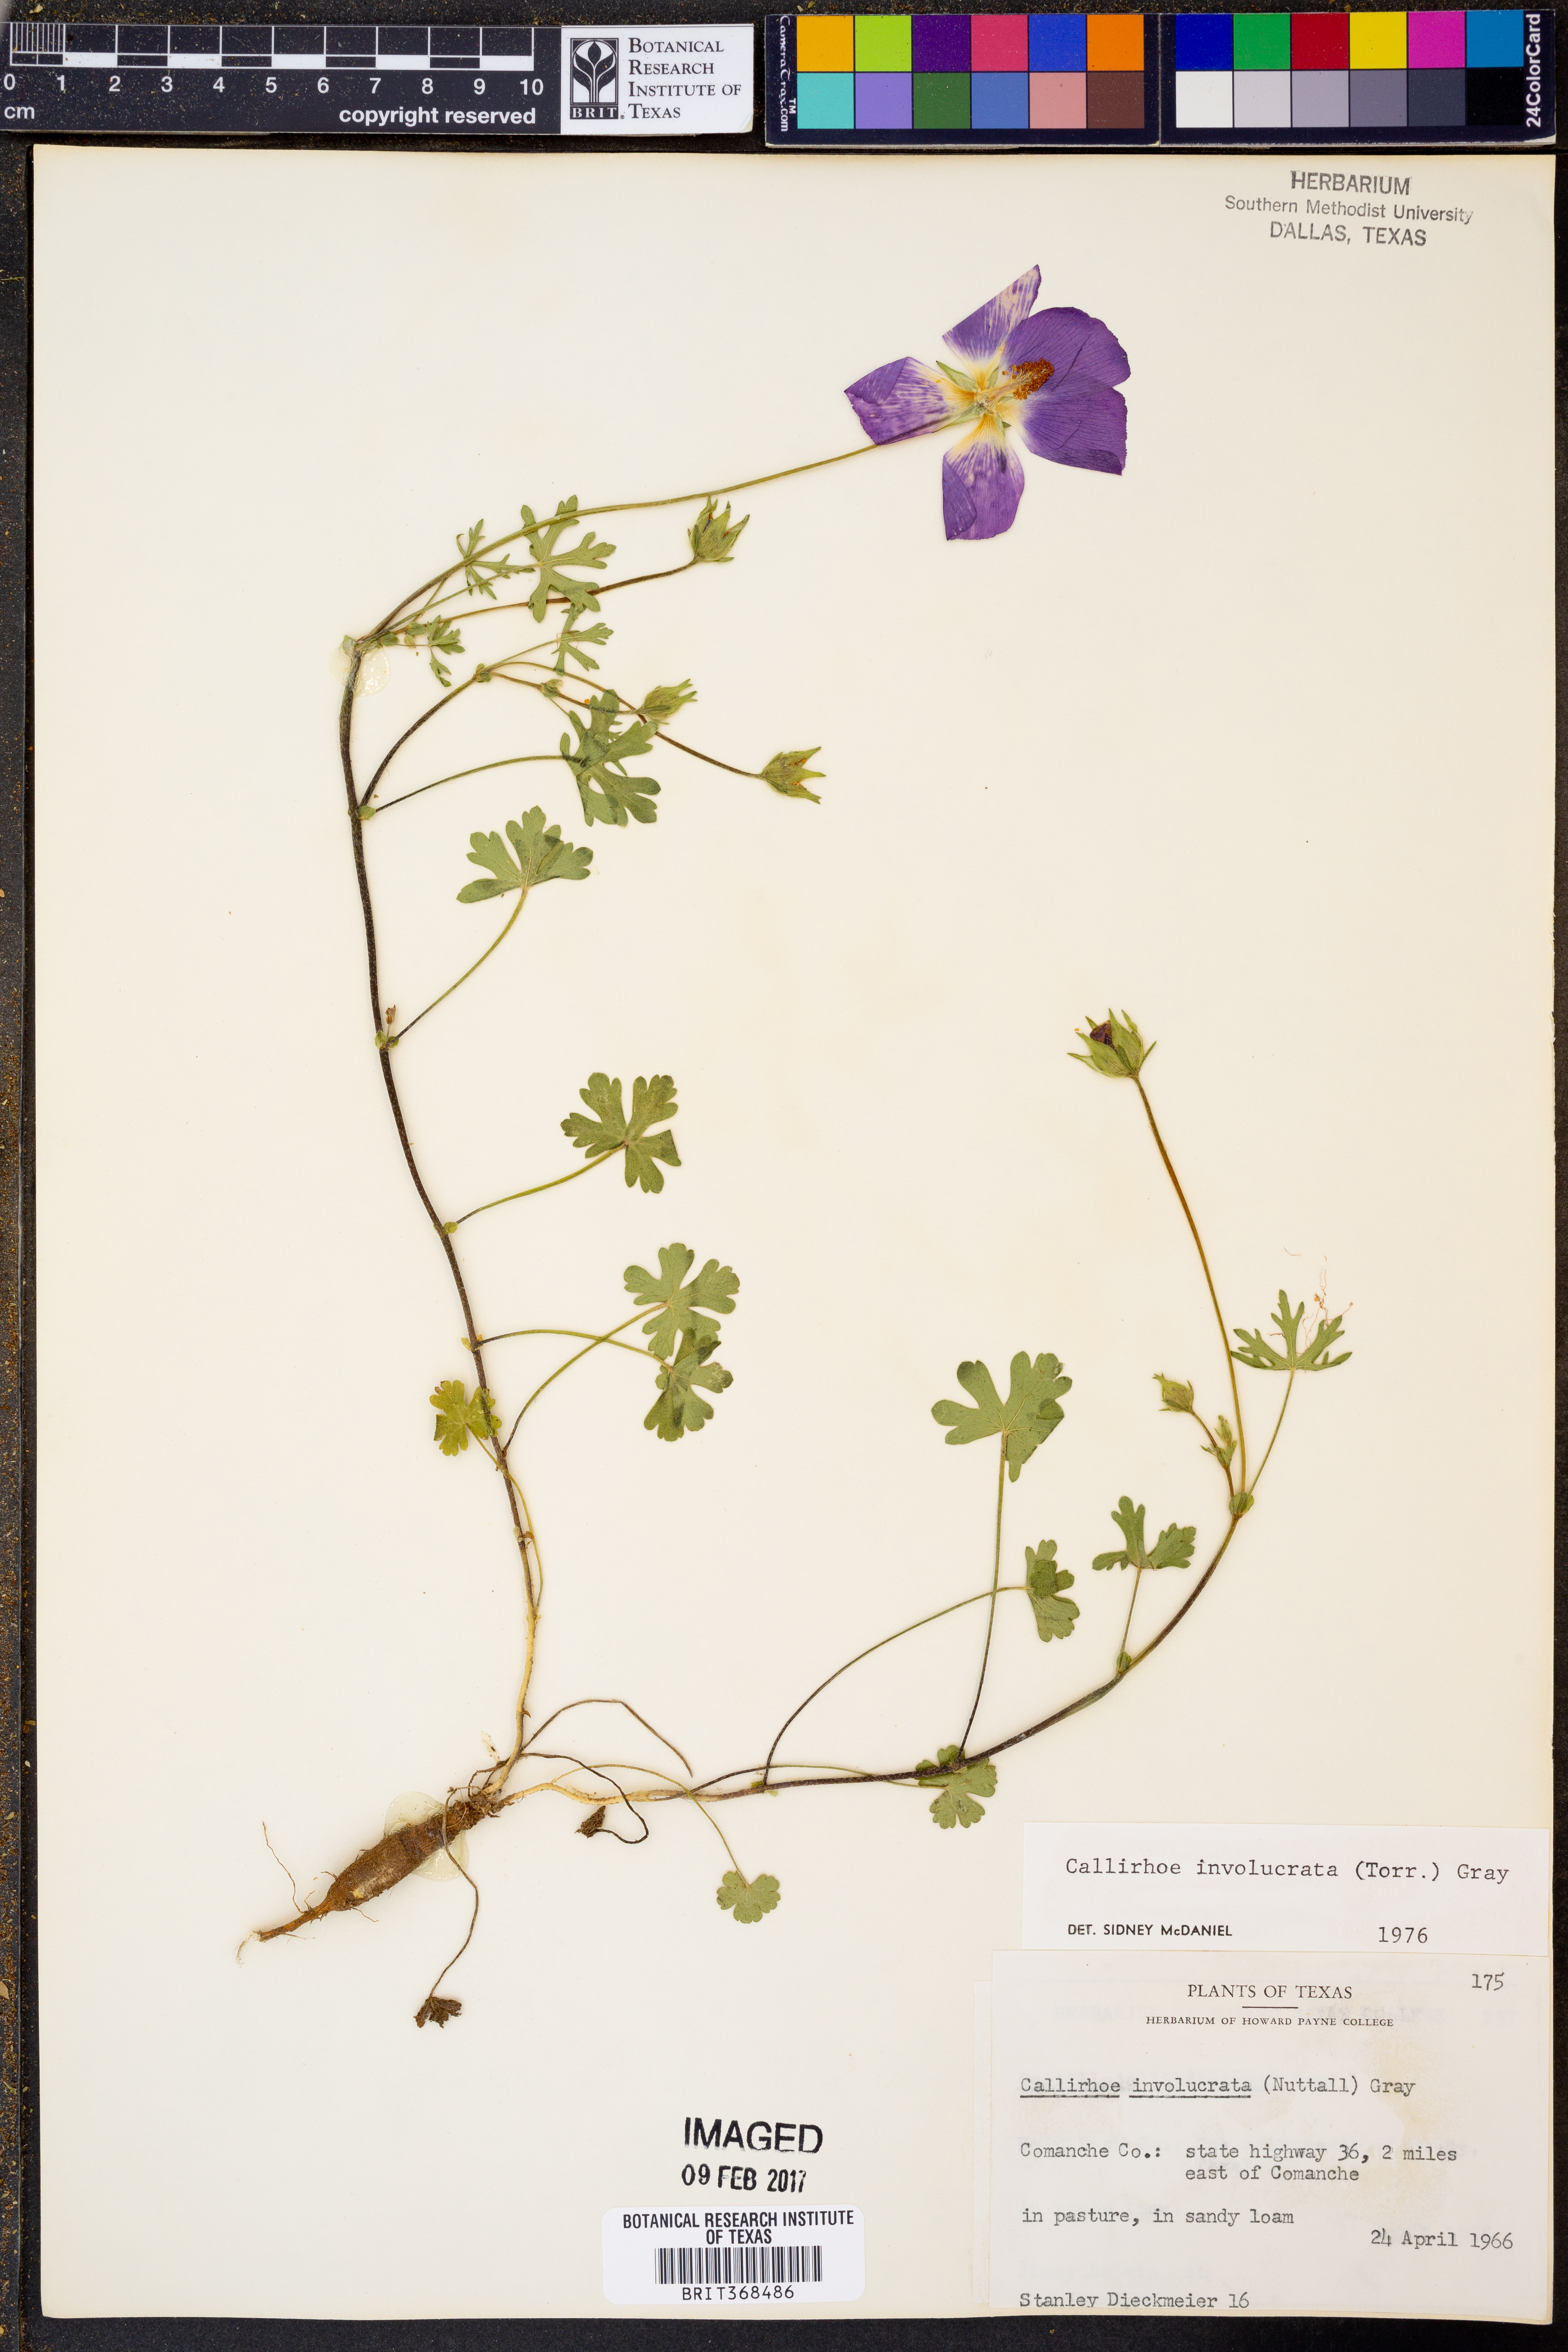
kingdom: Plantae
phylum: Tracheophyta
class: Magnoliopsida
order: Malvales
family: Malvaceae
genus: Callirhoe
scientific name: Callirhoe involucrata
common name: Purple poppy-mallow
